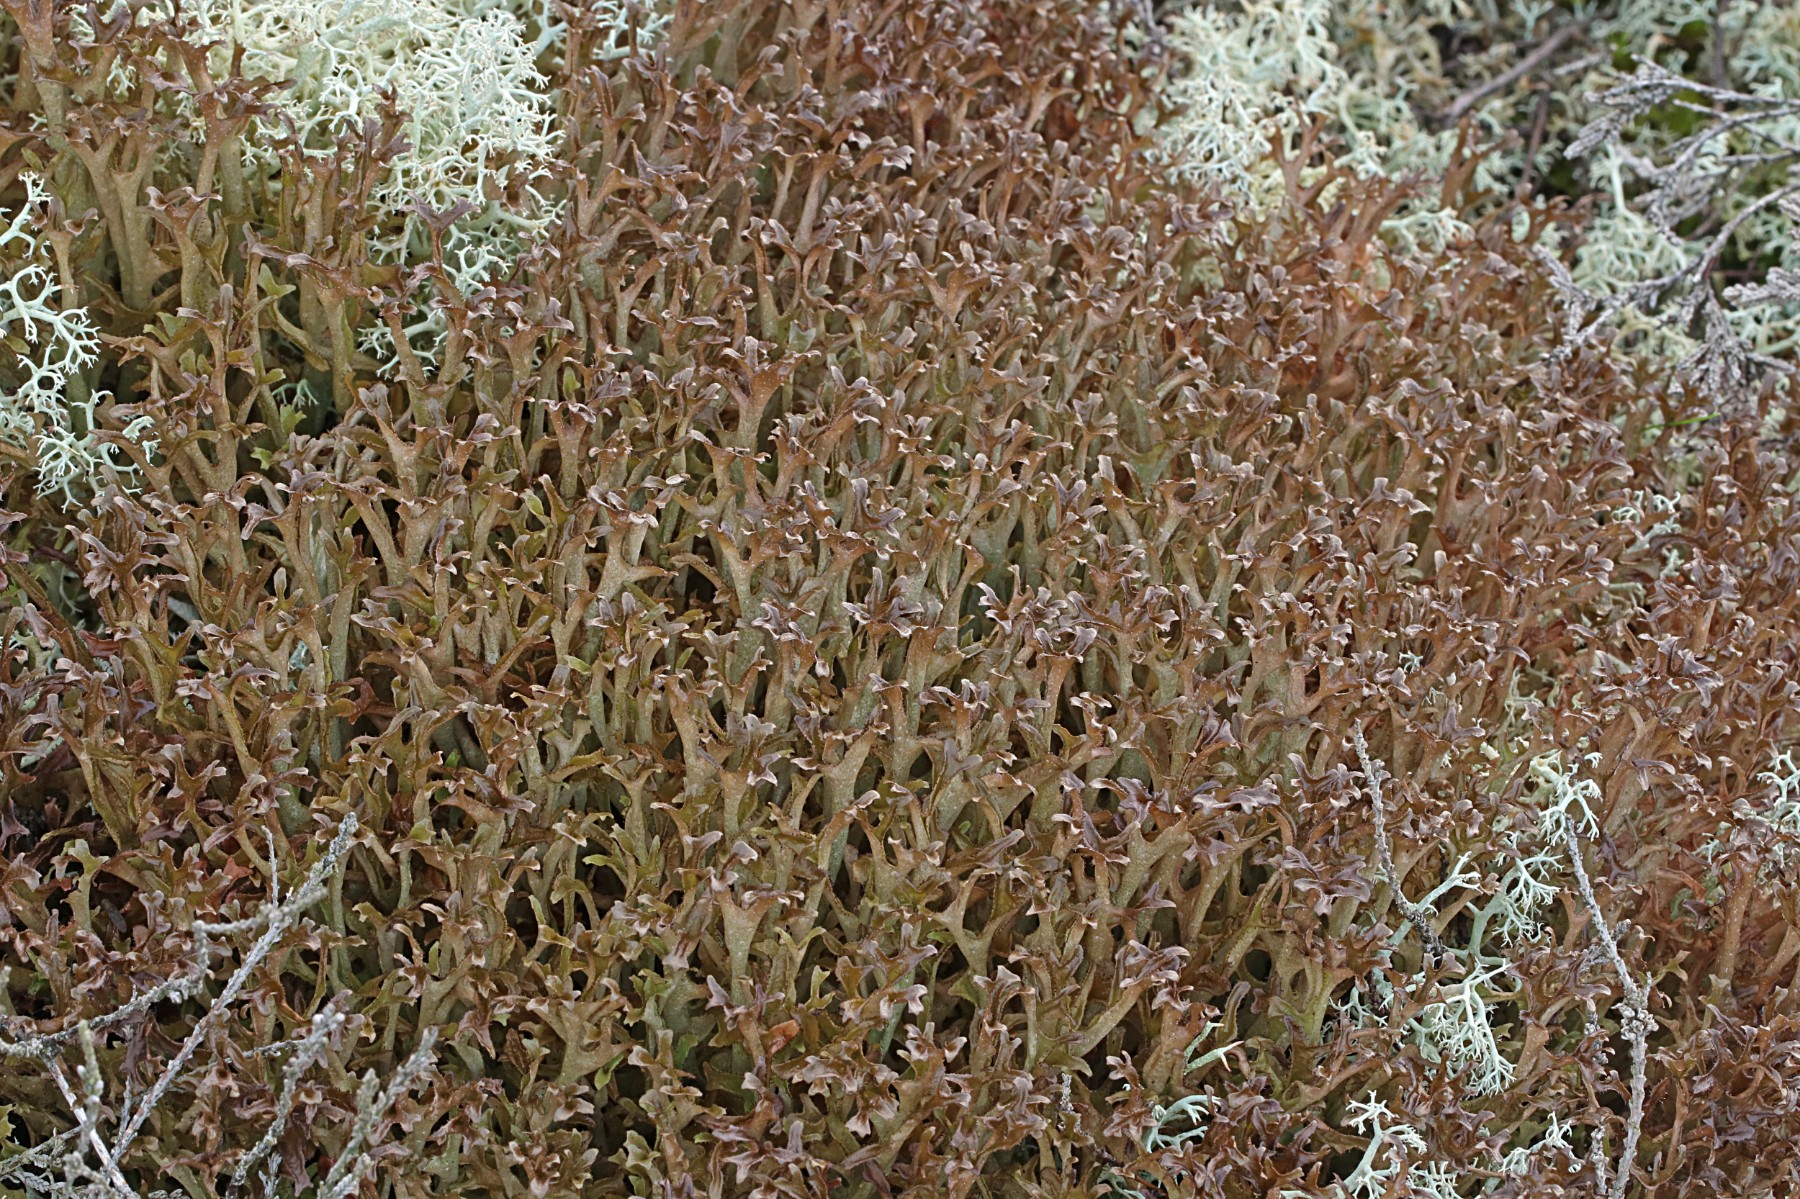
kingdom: Fungi
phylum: Ascomycota
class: Lecanoromycetes
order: Lecanorales
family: Parmeliaceae
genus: Cetraria
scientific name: Cetraria islandica
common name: islandsk kruslav
